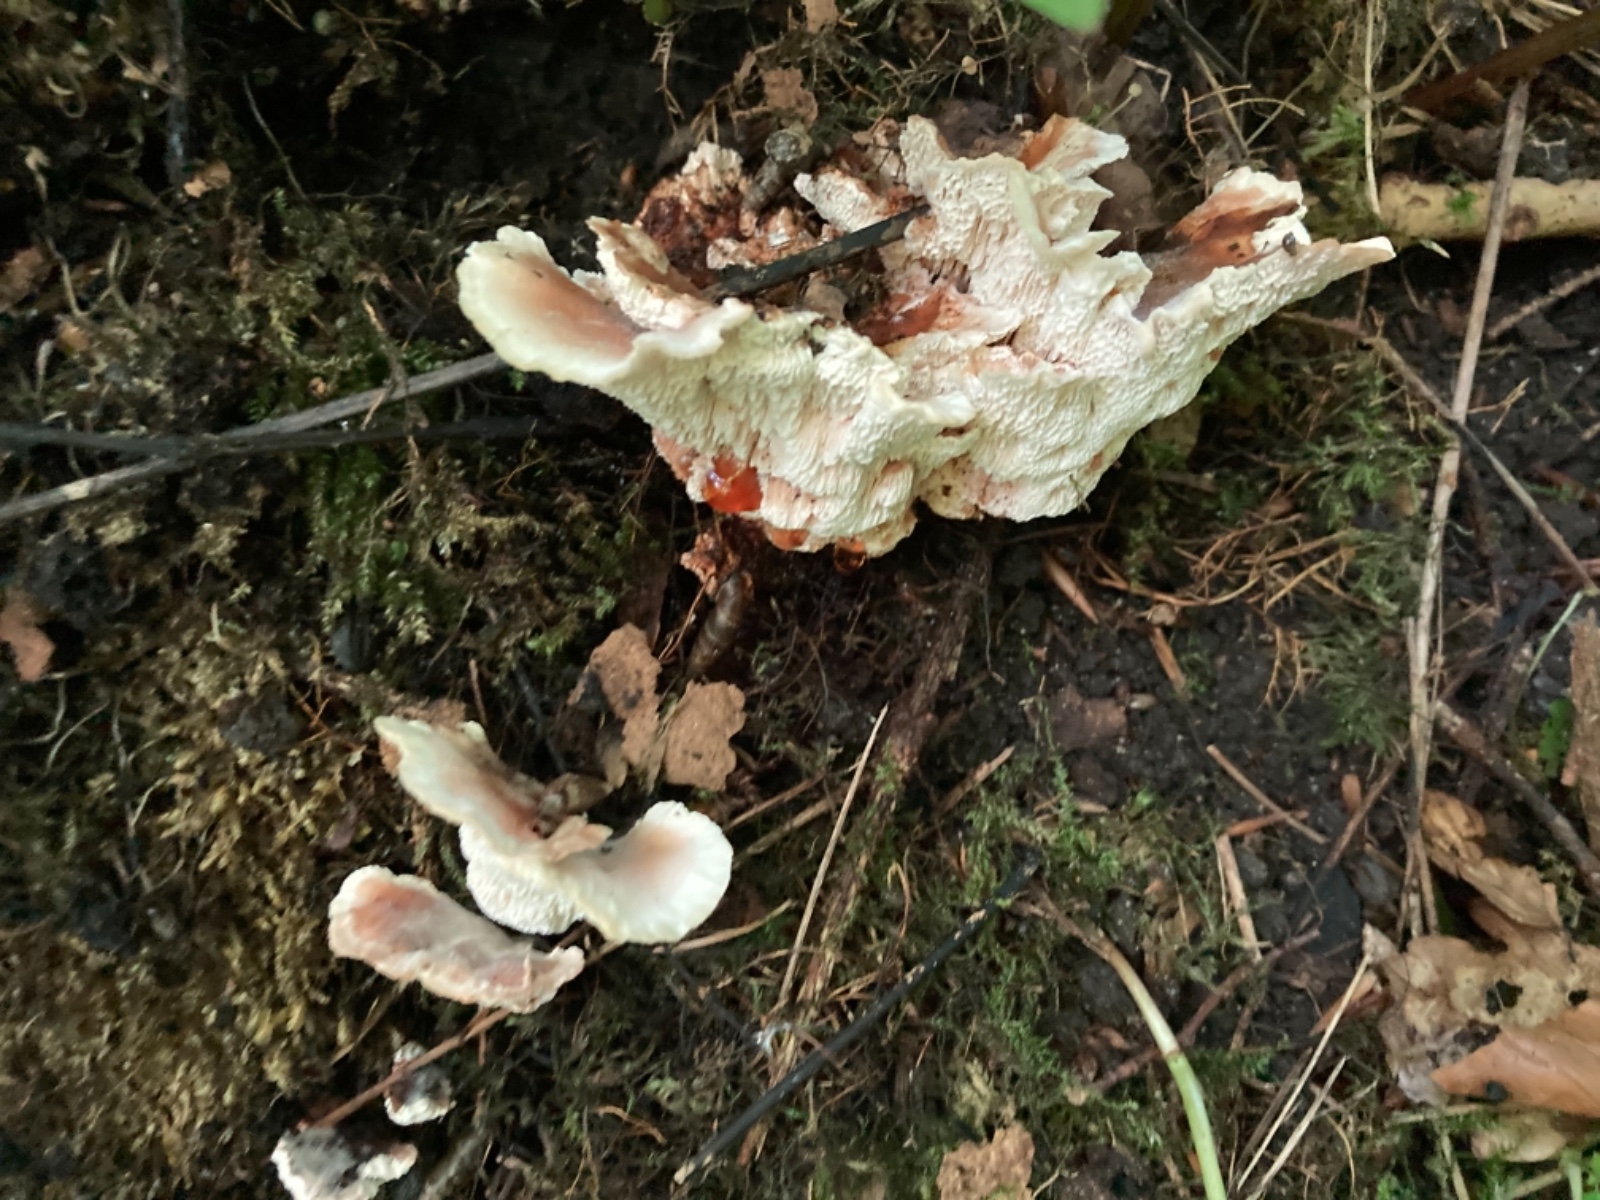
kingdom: Fungi
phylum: Basidiomycota
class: Agaricomycetes
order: Polyporales
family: Podoscyphaceae
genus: Abortiporus
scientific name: Abortiporus biennis
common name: rødmende pjalteporesvamp
